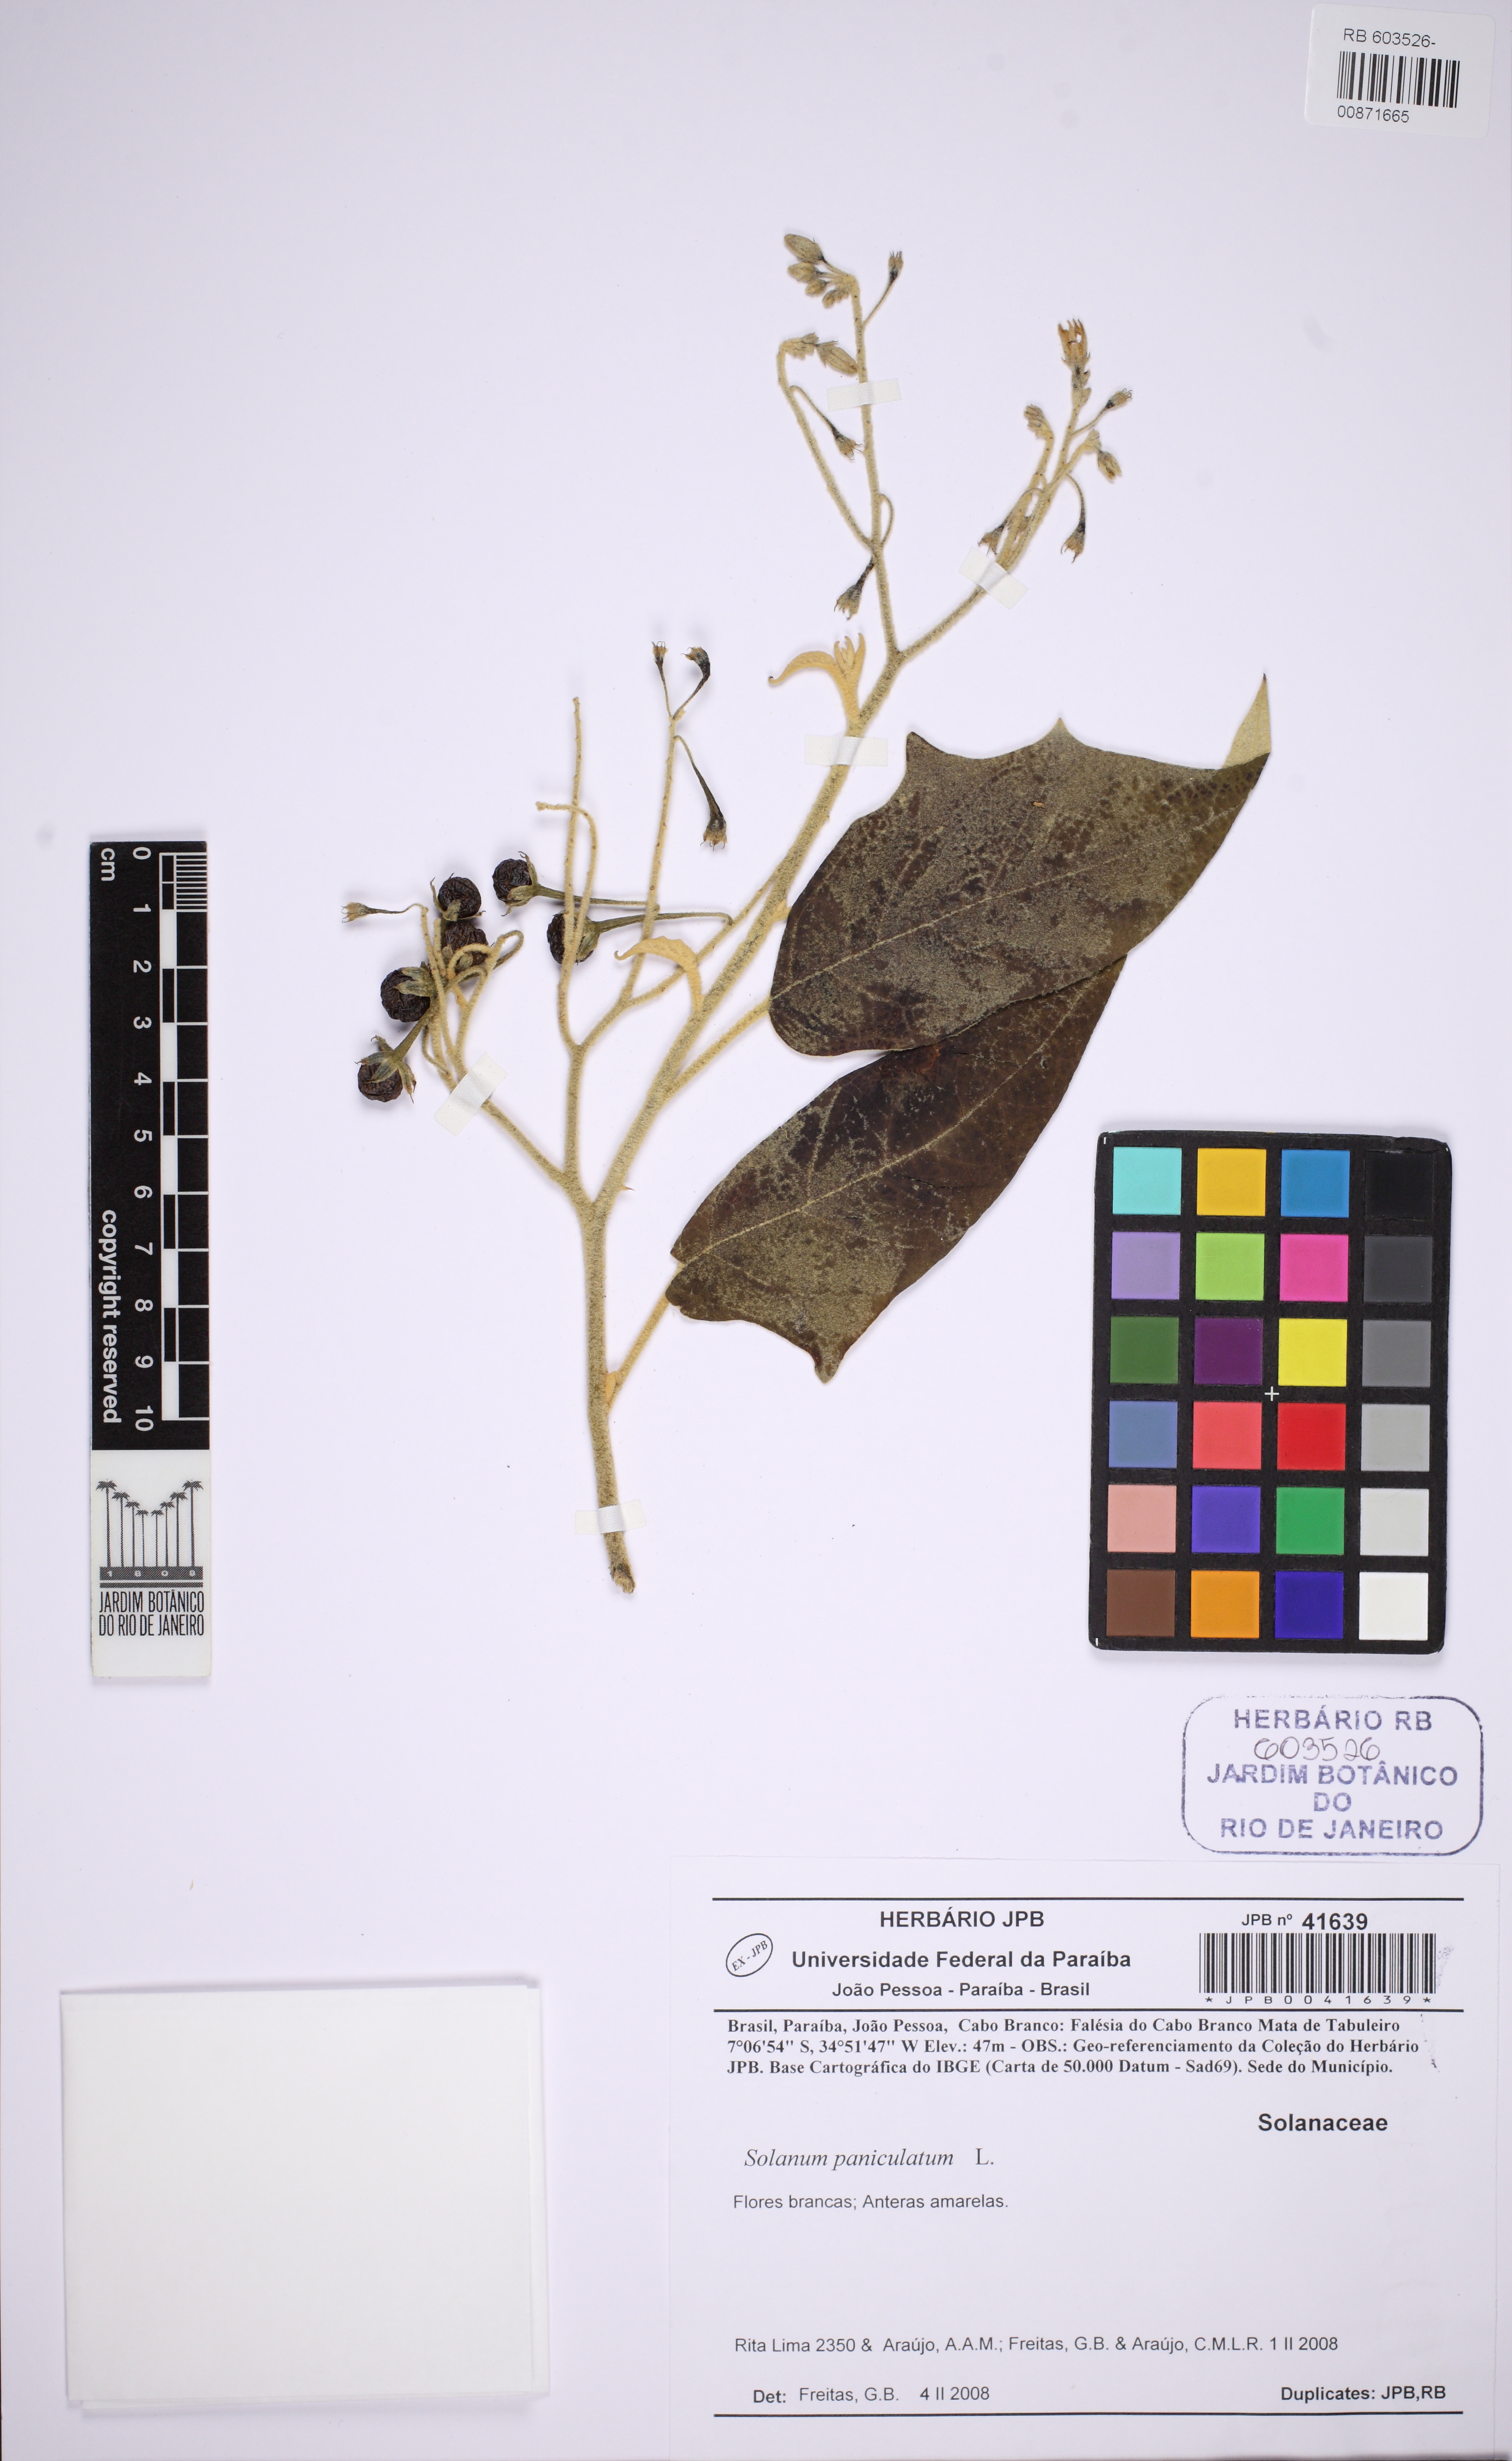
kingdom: Plantae
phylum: Tracheophyta
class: Magnoliopsida
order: Solanales
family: Solanaceae
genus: Solanum
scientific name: Solanum paniculatum
